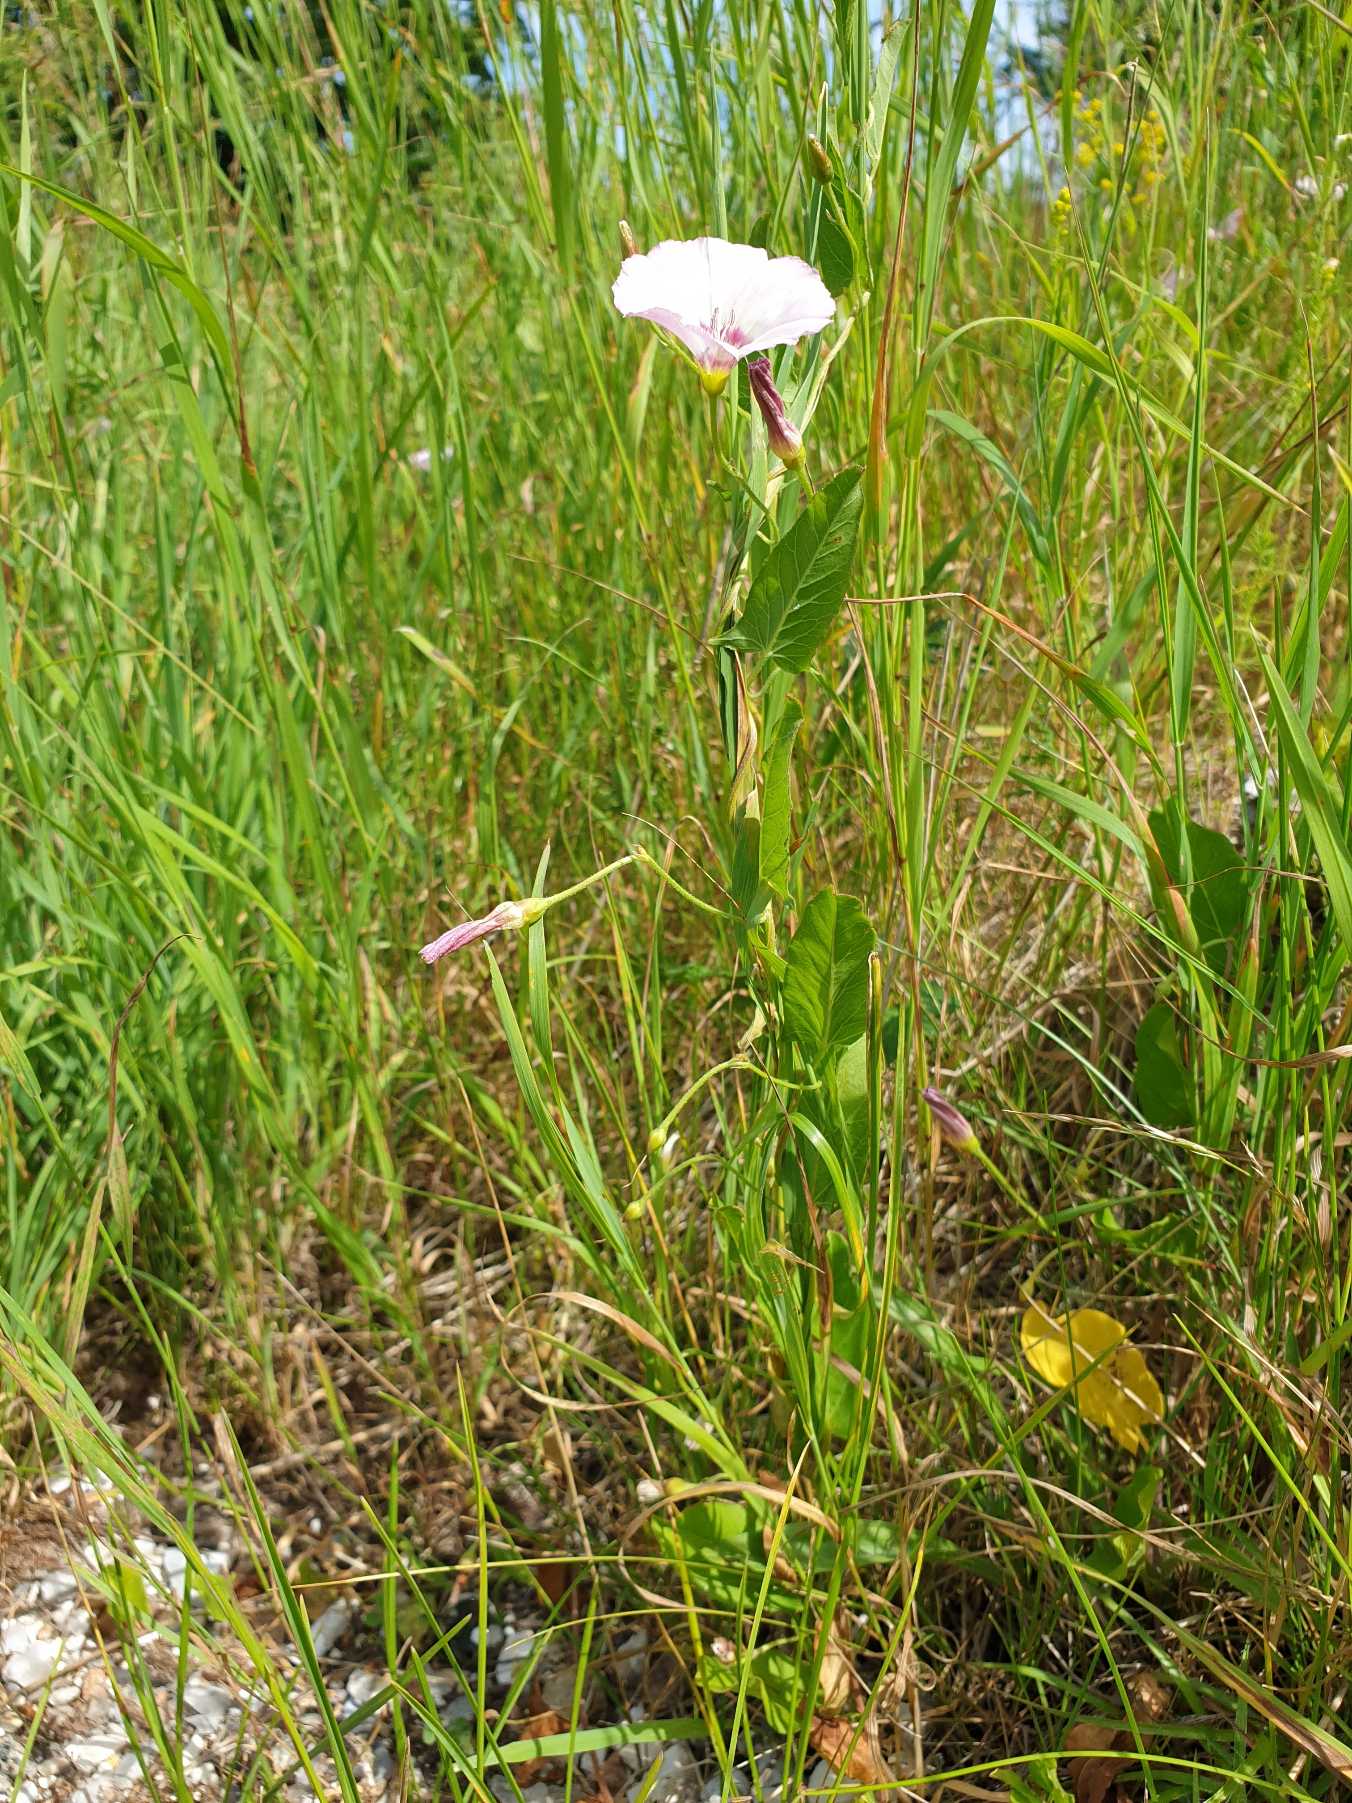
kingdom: Plantae
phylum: Tracheophyta
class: Magnoliopsida
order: Solanales
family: Convolvulaceae
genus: Convolvulus
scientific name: Convolvulus arvensis
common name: Ager-snerle
